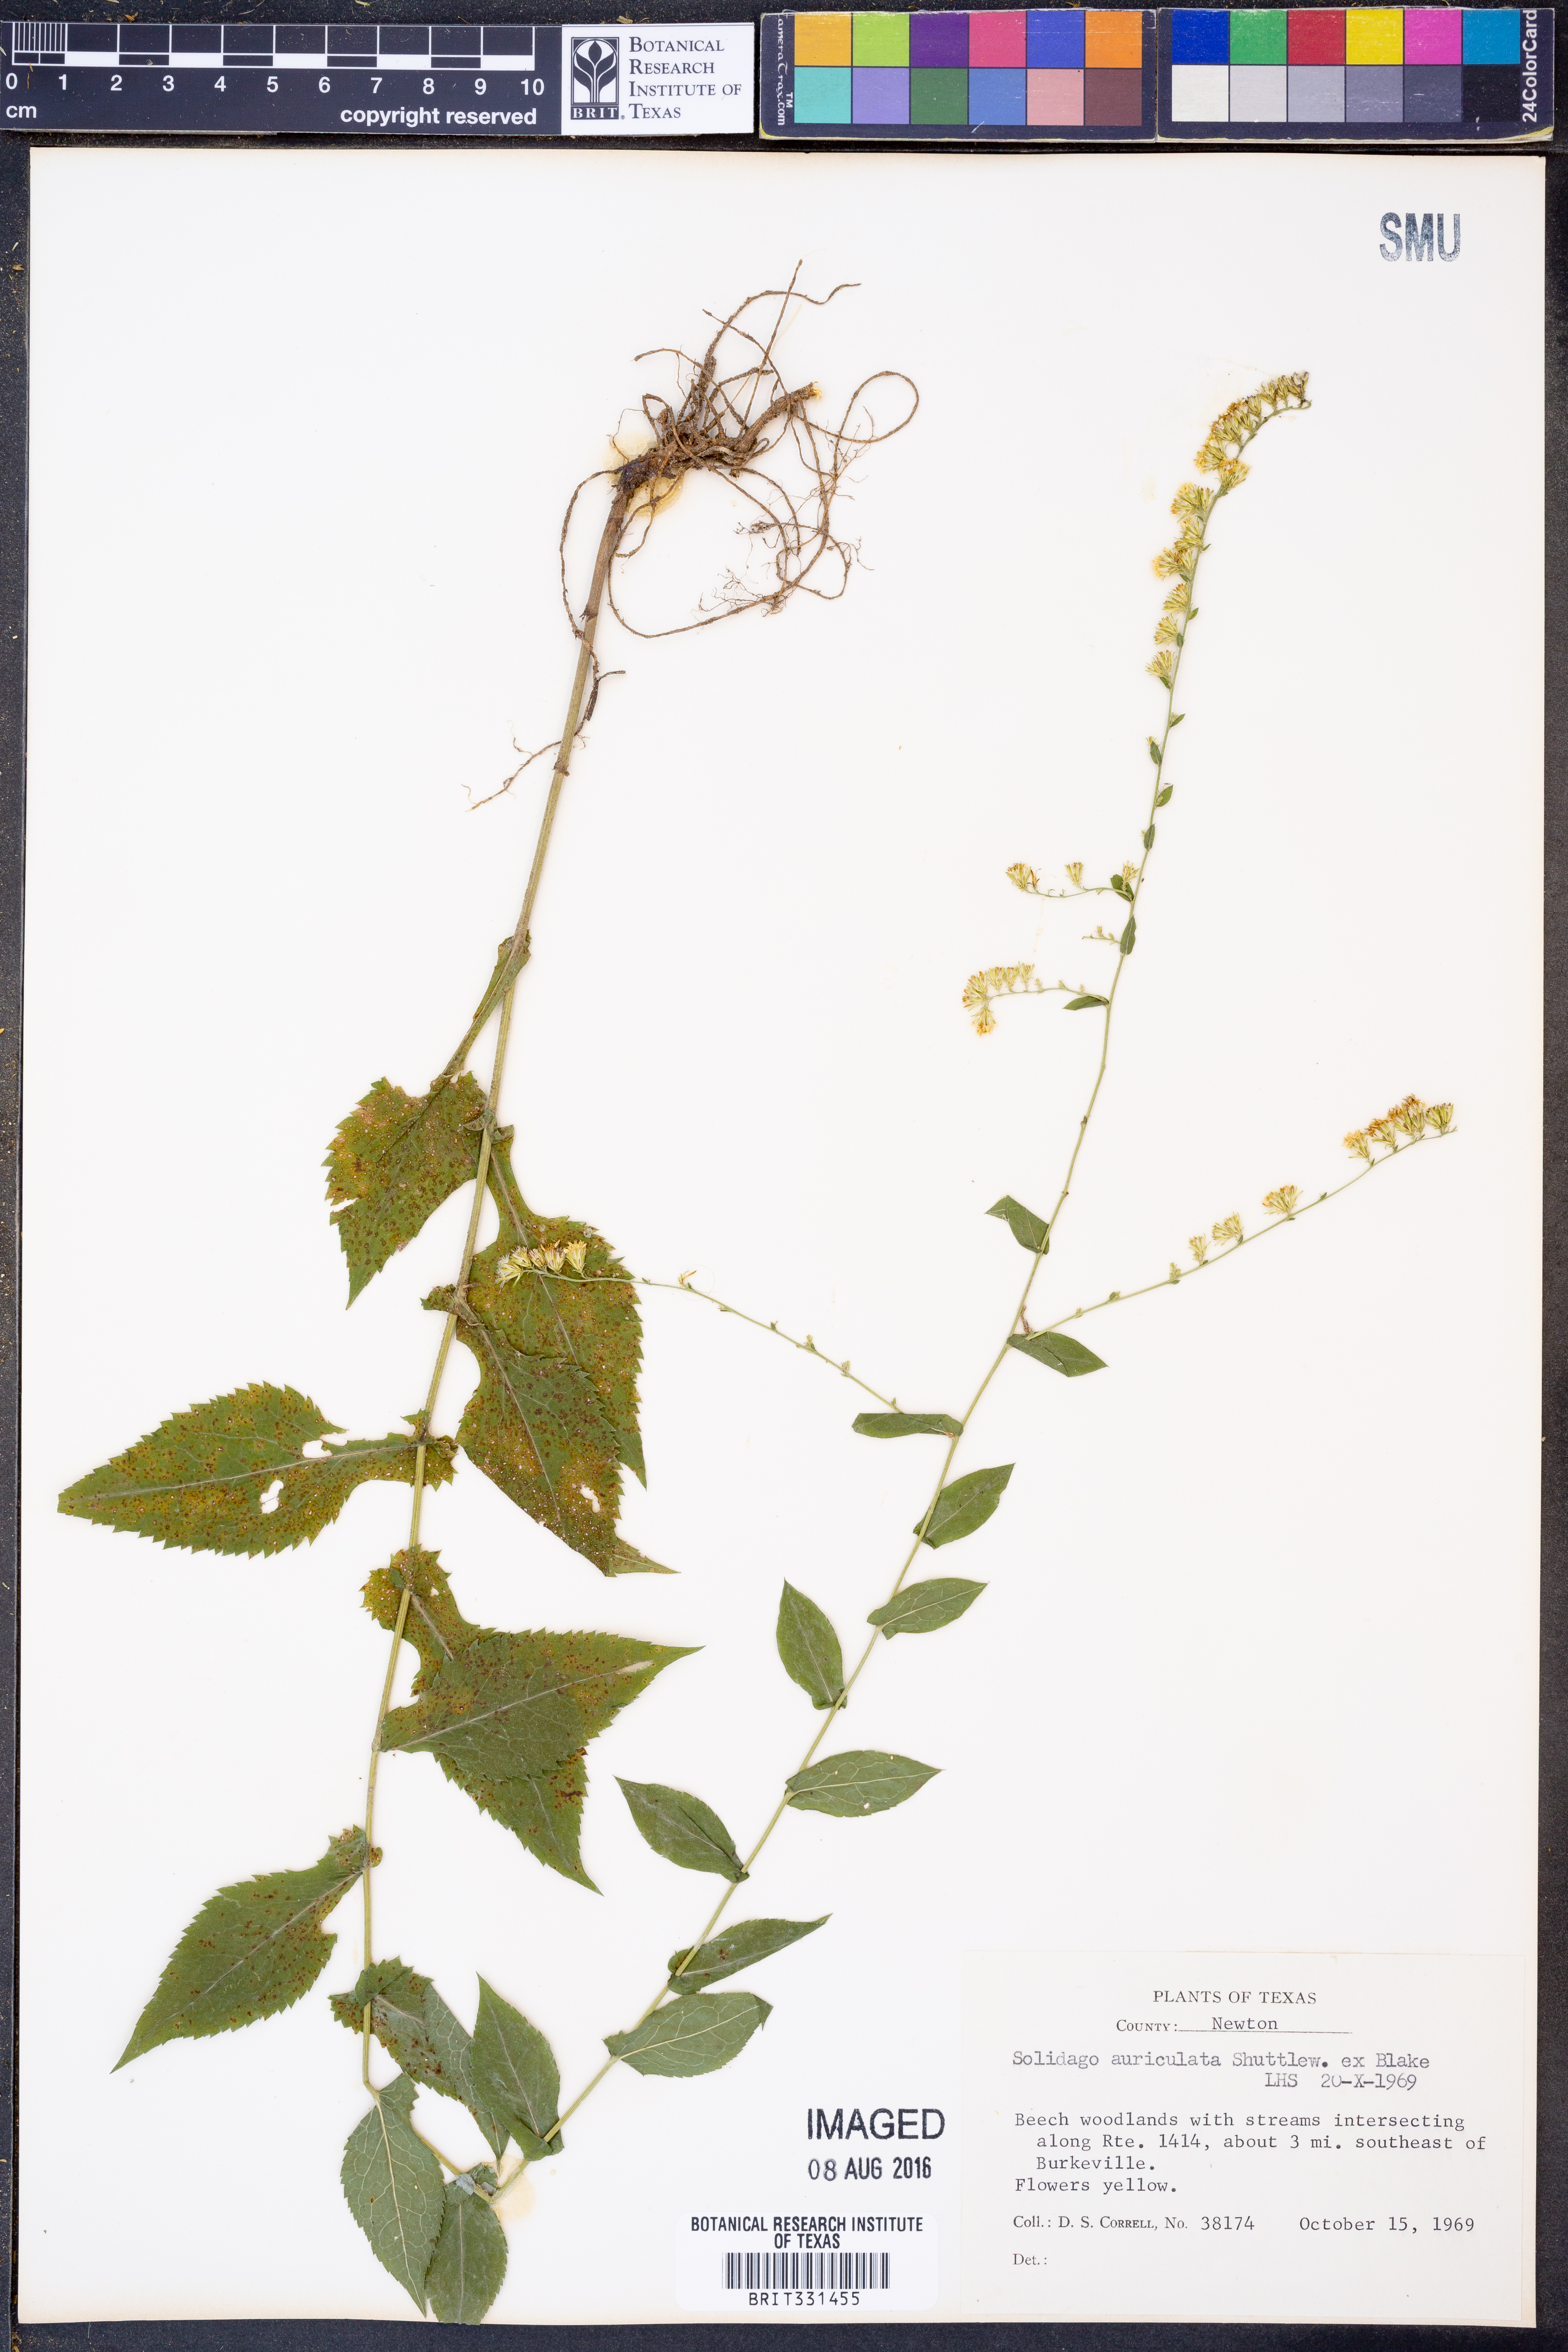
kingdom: Plantae
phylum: Tracheophyta
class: Magnoliopsida
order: Asterales
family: Asteraceae
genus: Solidago
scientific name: Solidago auriculata
